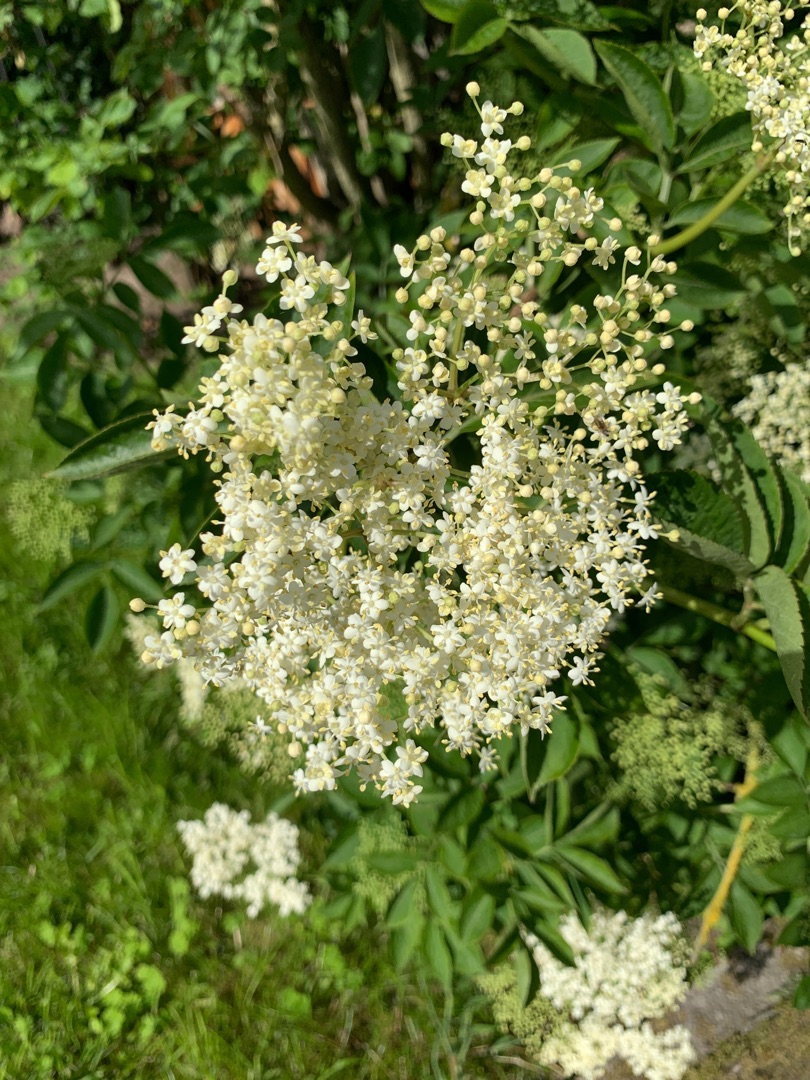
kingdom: Plantae
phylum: Tracheophyta
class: Magnoliopsida
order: Dipsacales
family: Viburnaceae
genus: Sambucus
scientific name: Sambucus nigra
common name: Almindelig hyld
